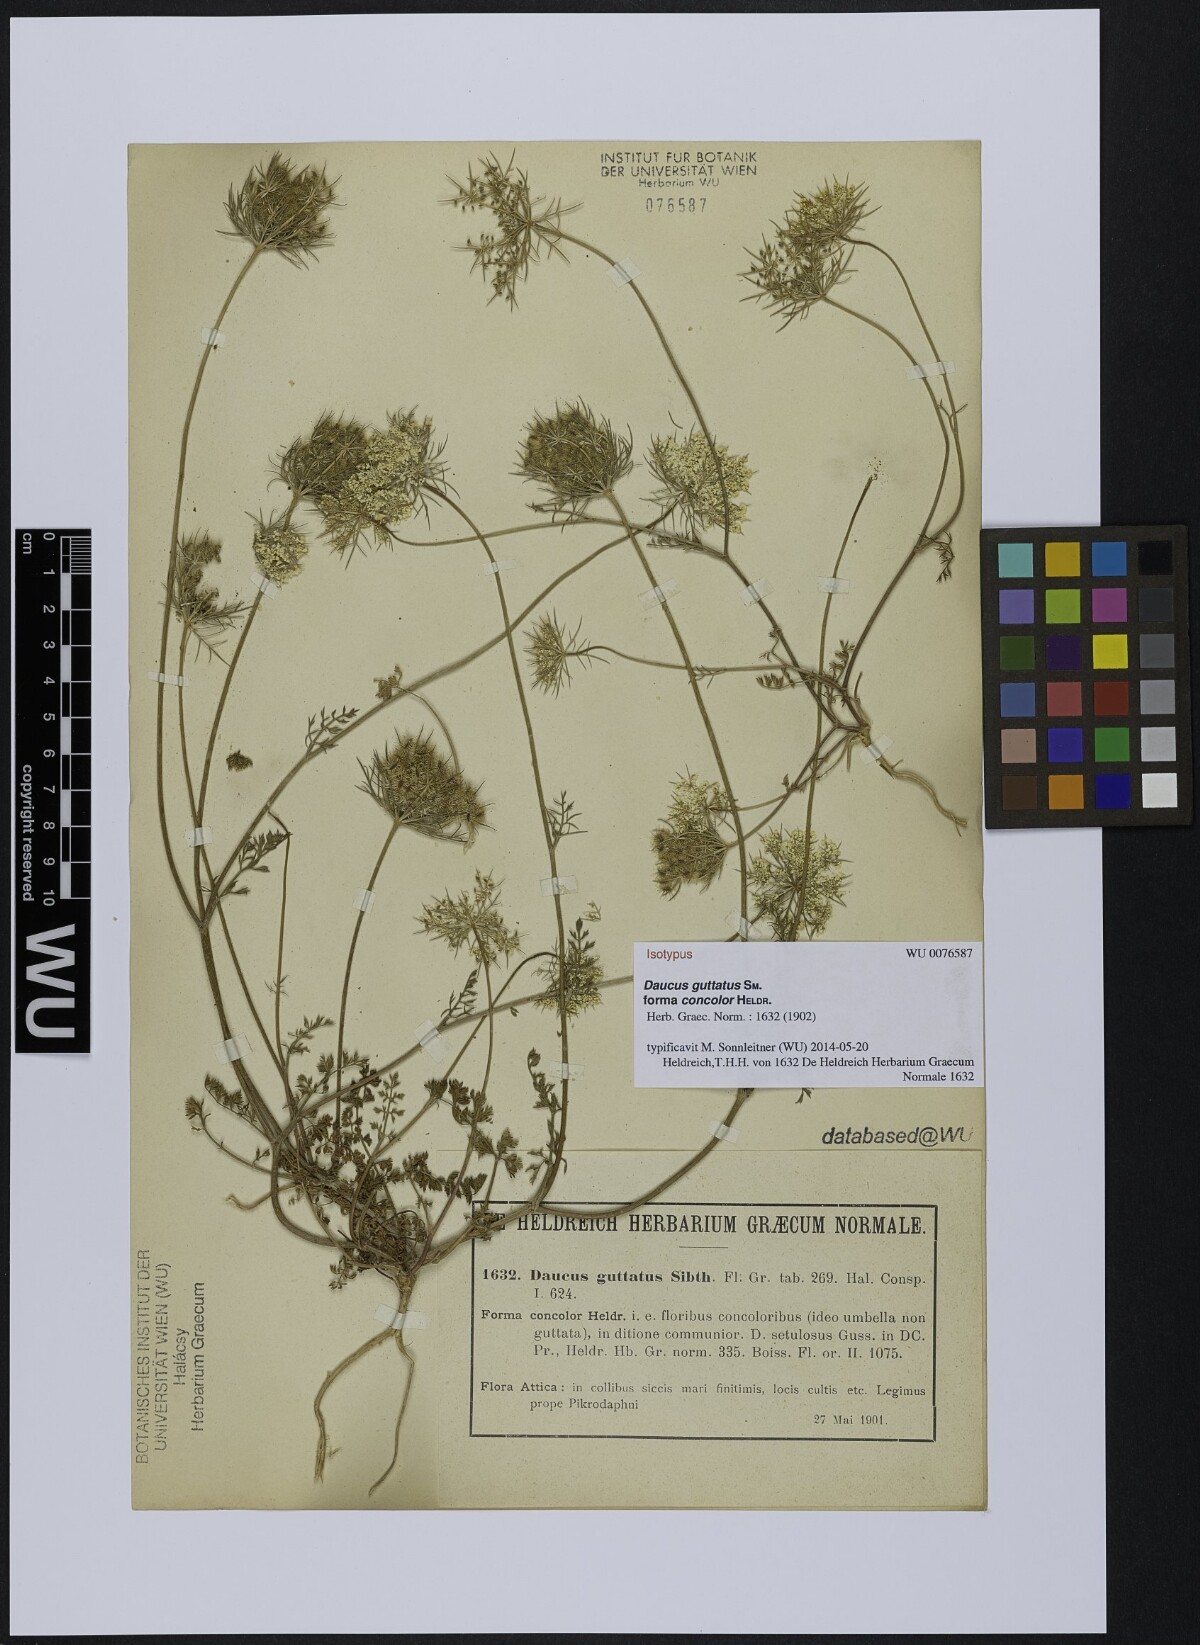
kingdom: Plantae
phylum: Tracheophyta
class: Magnoliopsida
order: Apiales
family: Apiaceae
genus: Daucus
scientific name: Daucus guttatus
